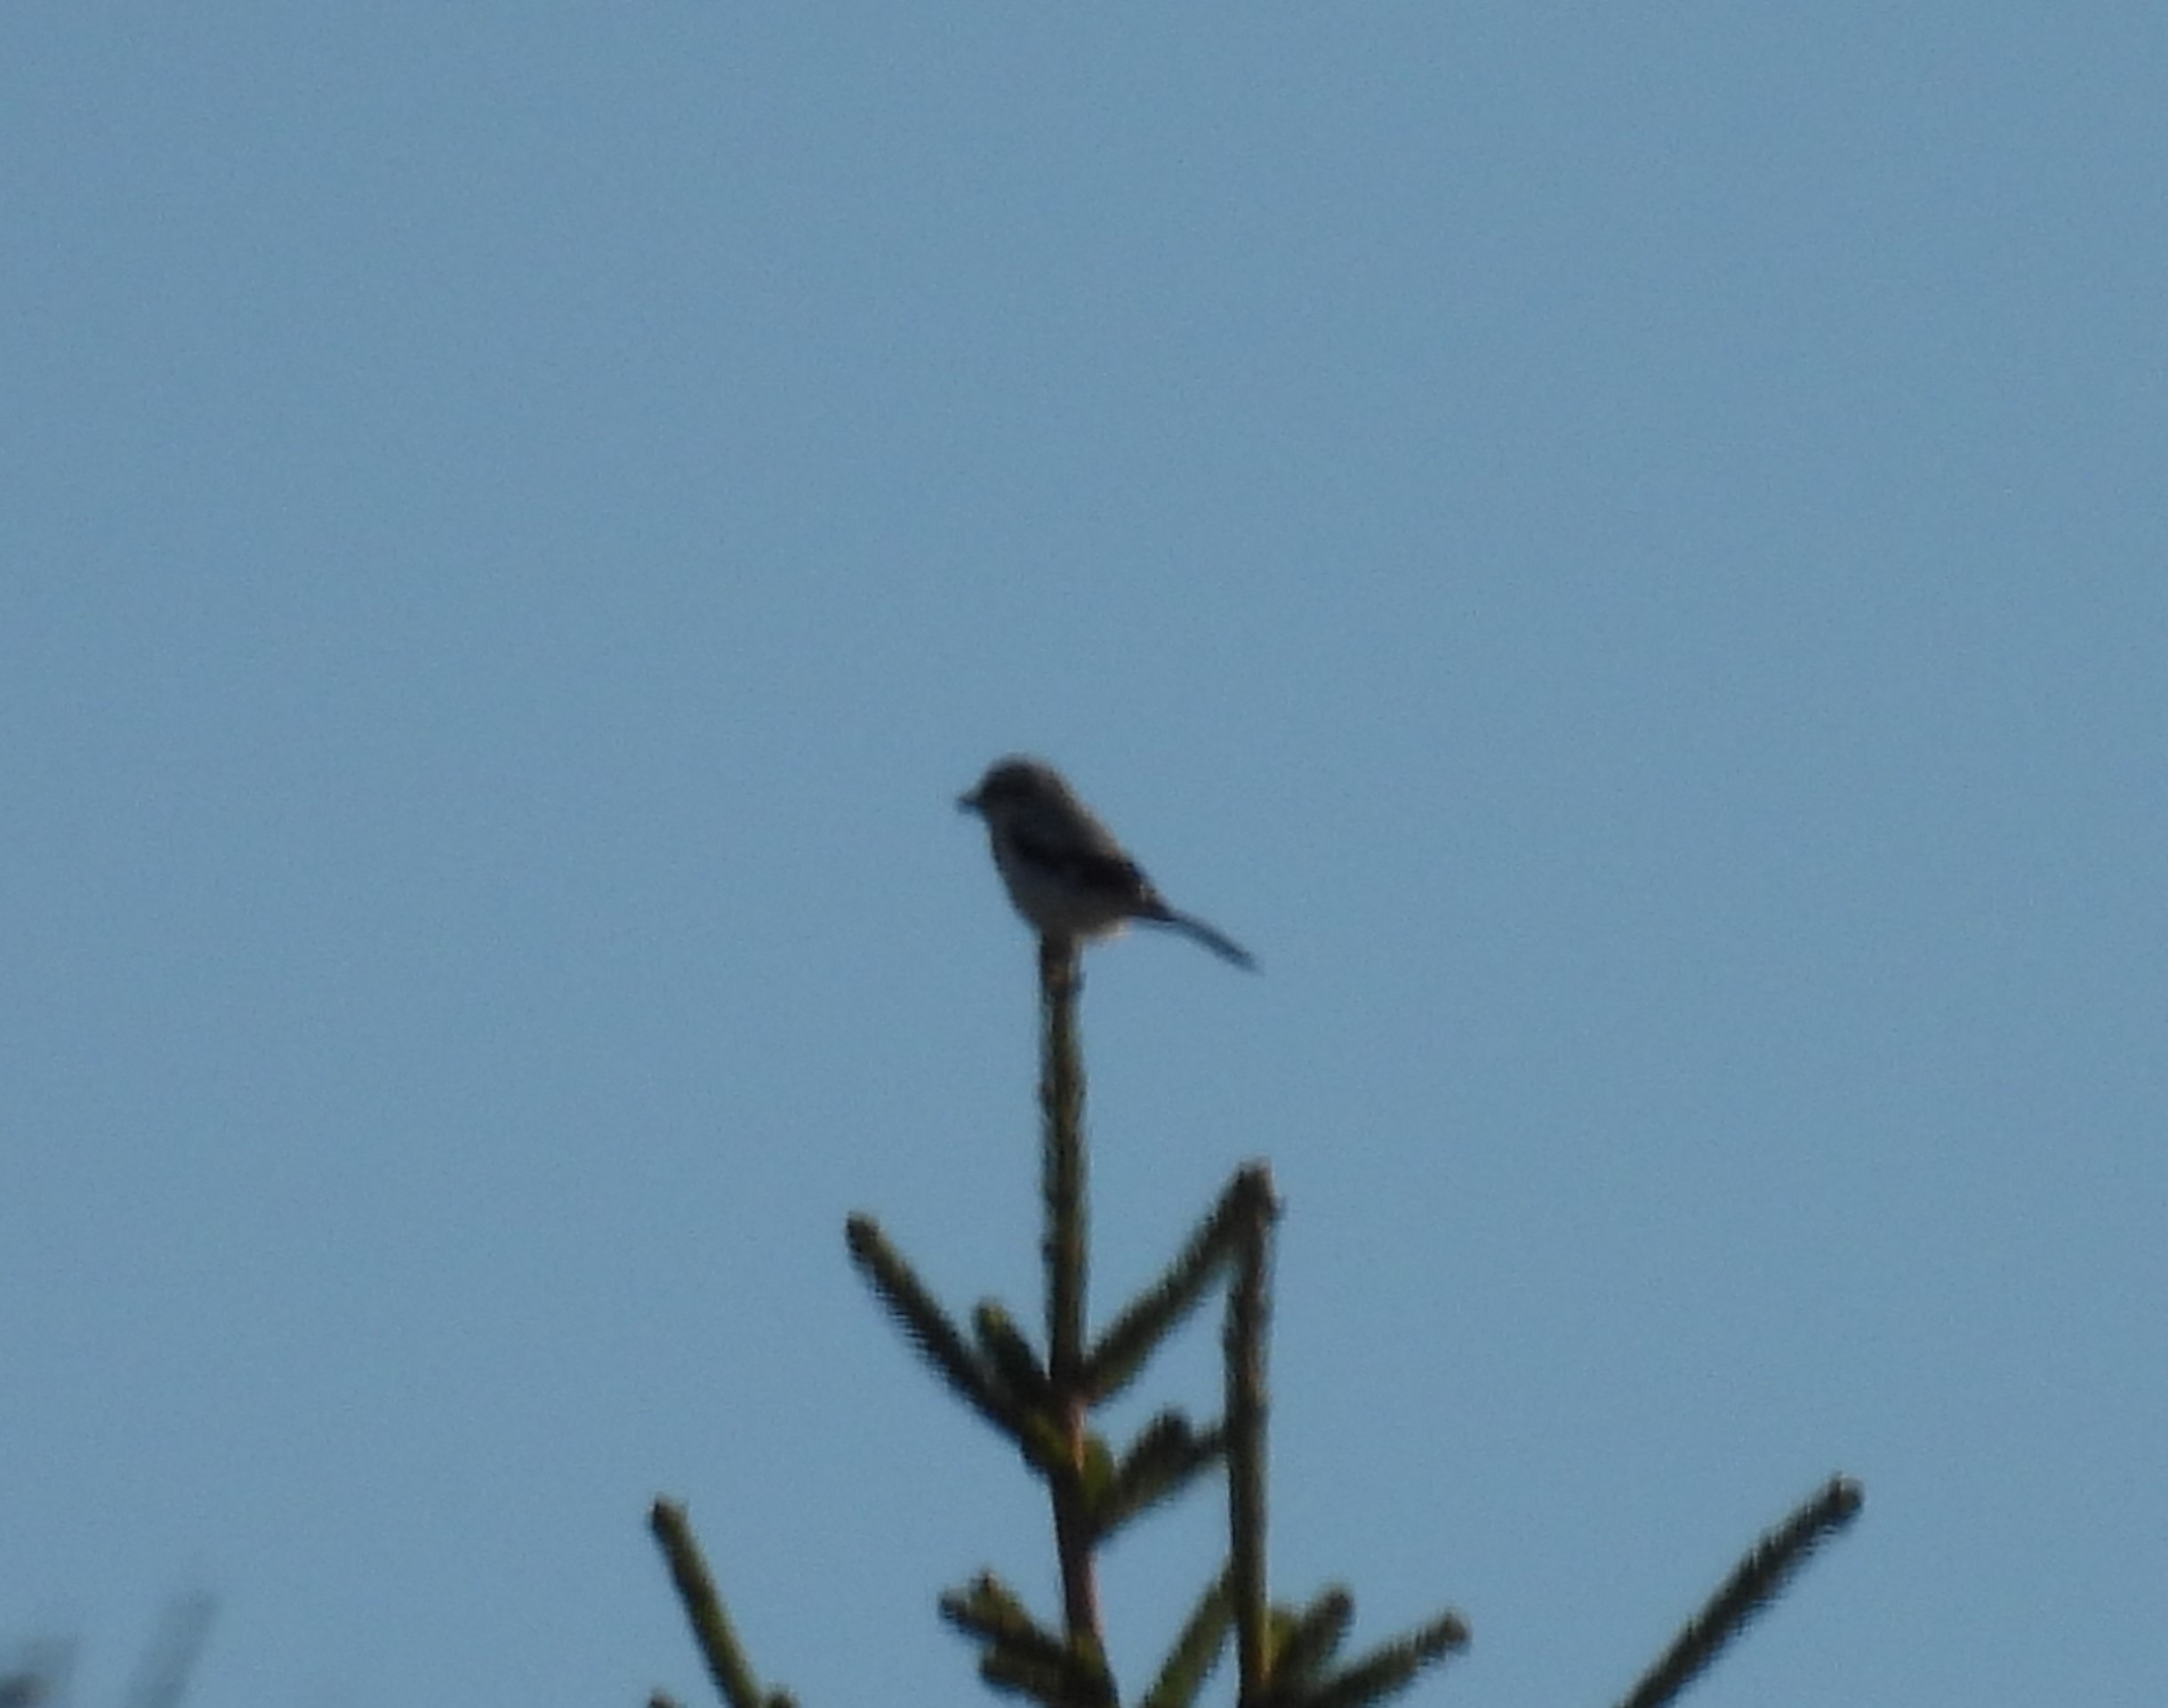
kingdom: Animalia
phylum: Chordata
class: Aves
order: Passeriformes
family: Laniidae
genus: Lanius
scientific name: Lanius excubitor
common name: Stor tornskade
